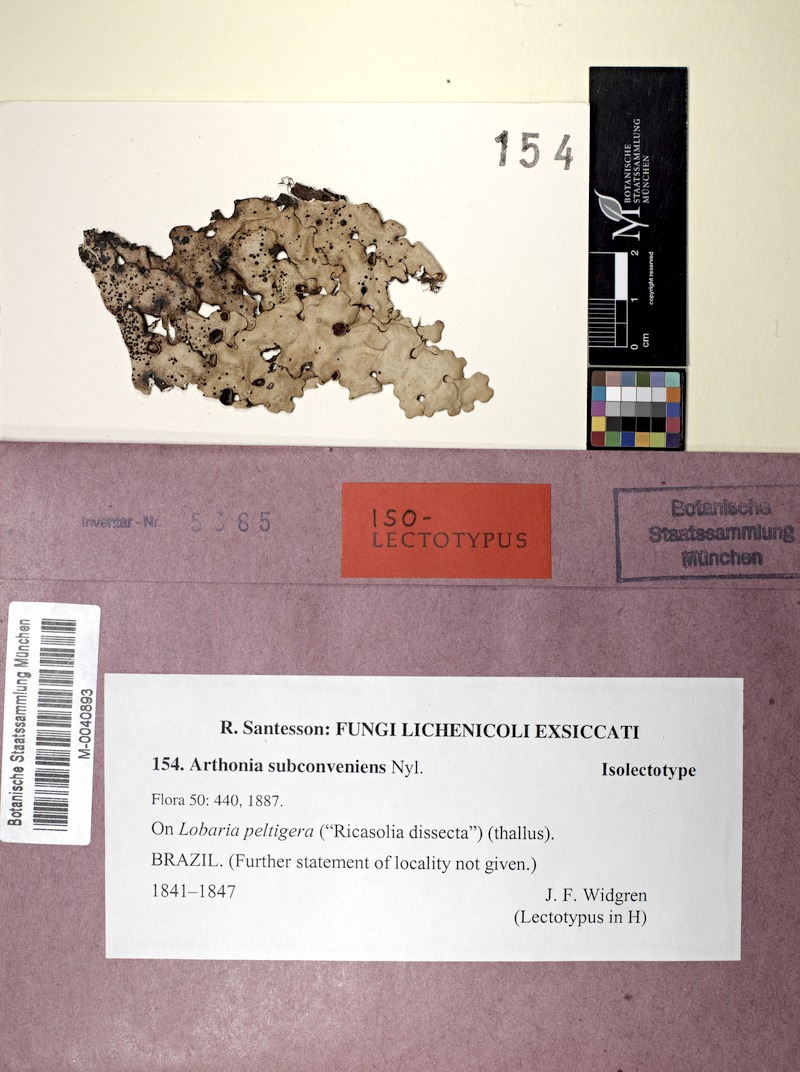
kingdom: Fungi
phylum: Ascomycota
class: Arthoniomycetes
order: Arthoniales
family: Arthoniaceae
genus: Arthonia
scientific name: Arthonia subconveniens
